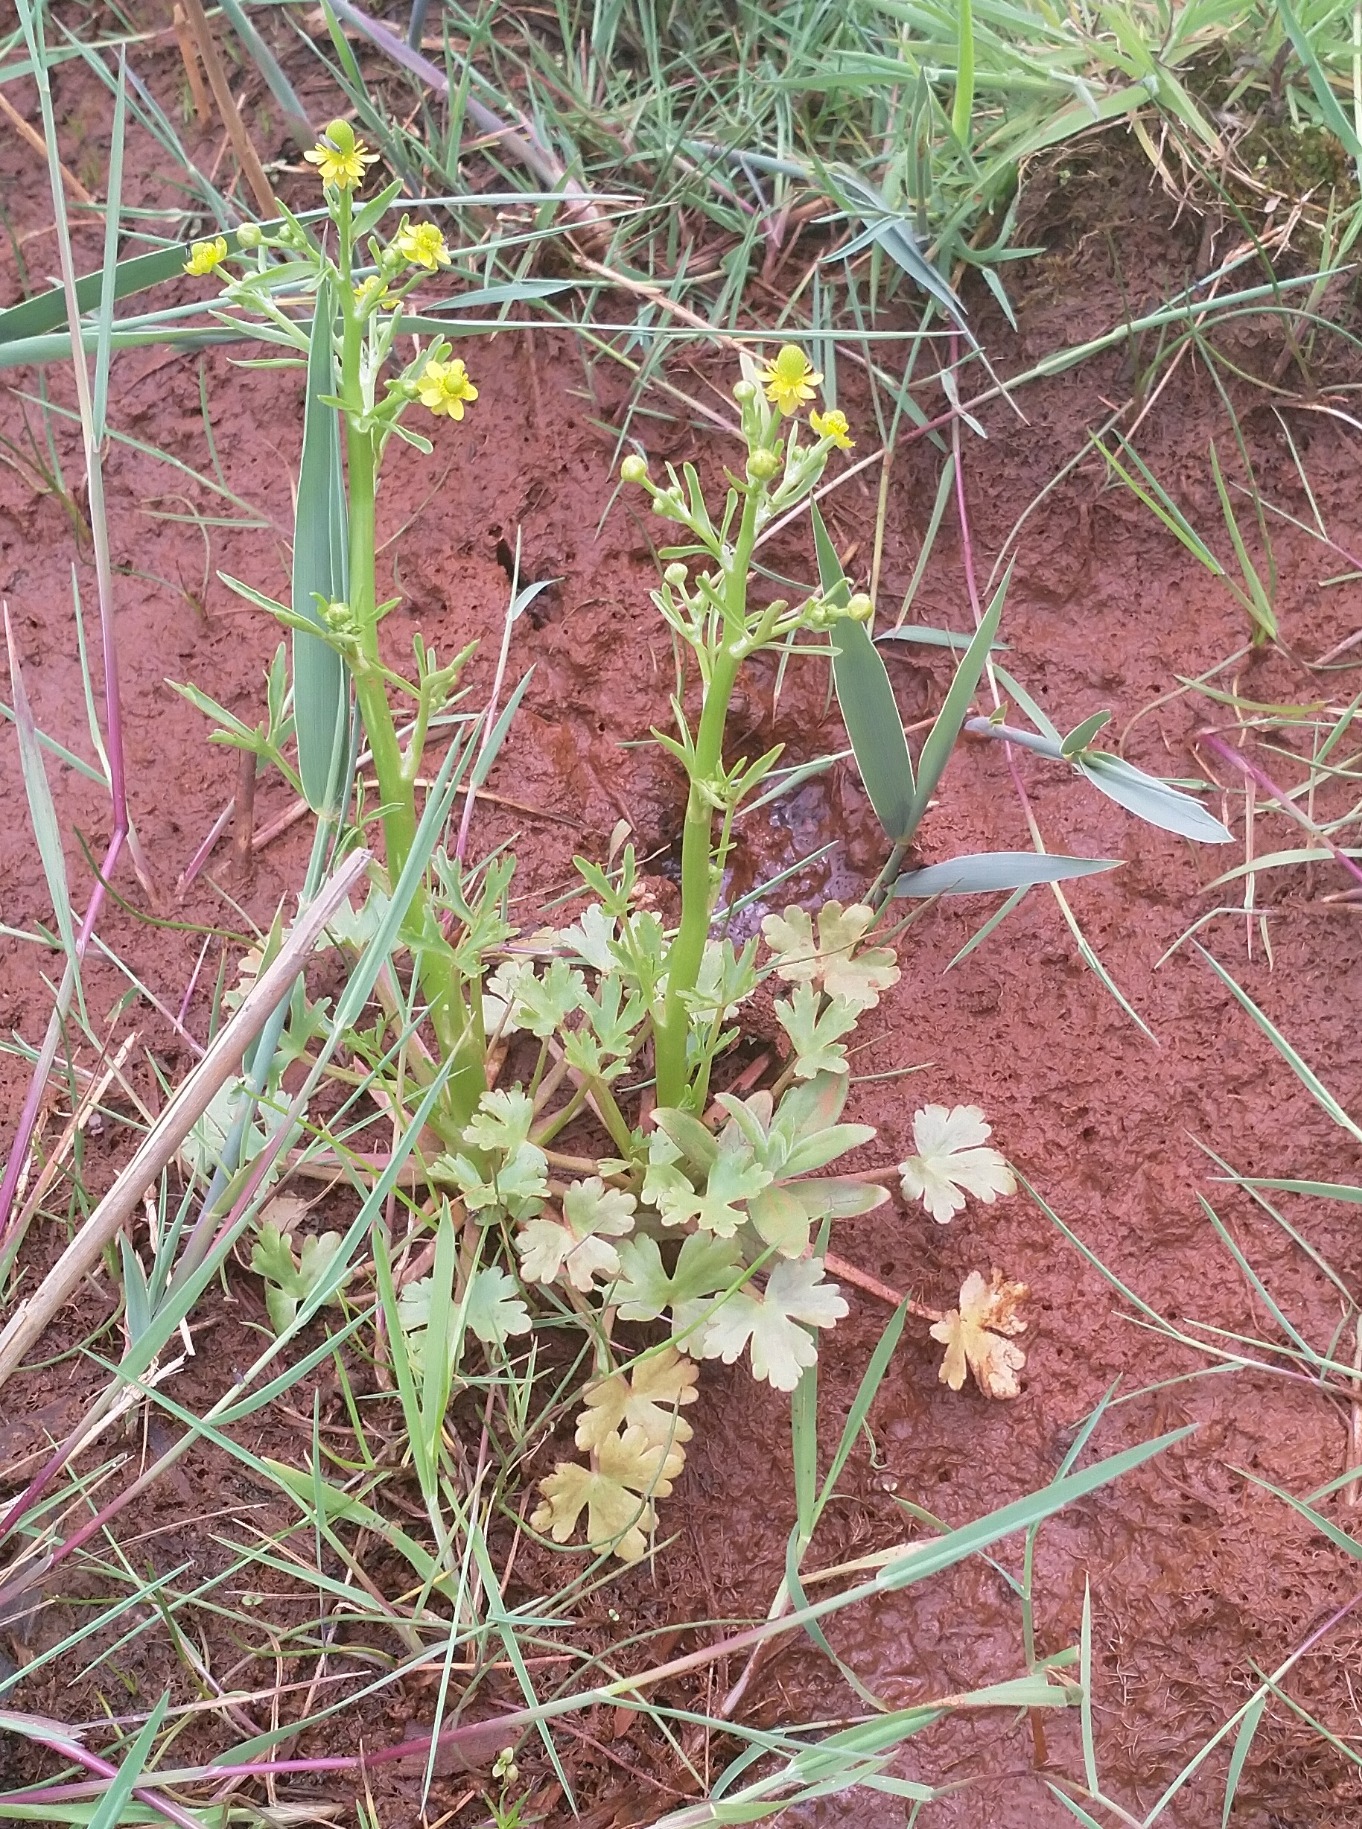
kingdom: Plantae
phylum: Tracheophyta
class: Magnoliopsida
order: Ranunculales
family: Ranunculaceae
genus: Ranunculus
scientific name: Ranunculus sceleratus
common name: Tigger-ranunkel
